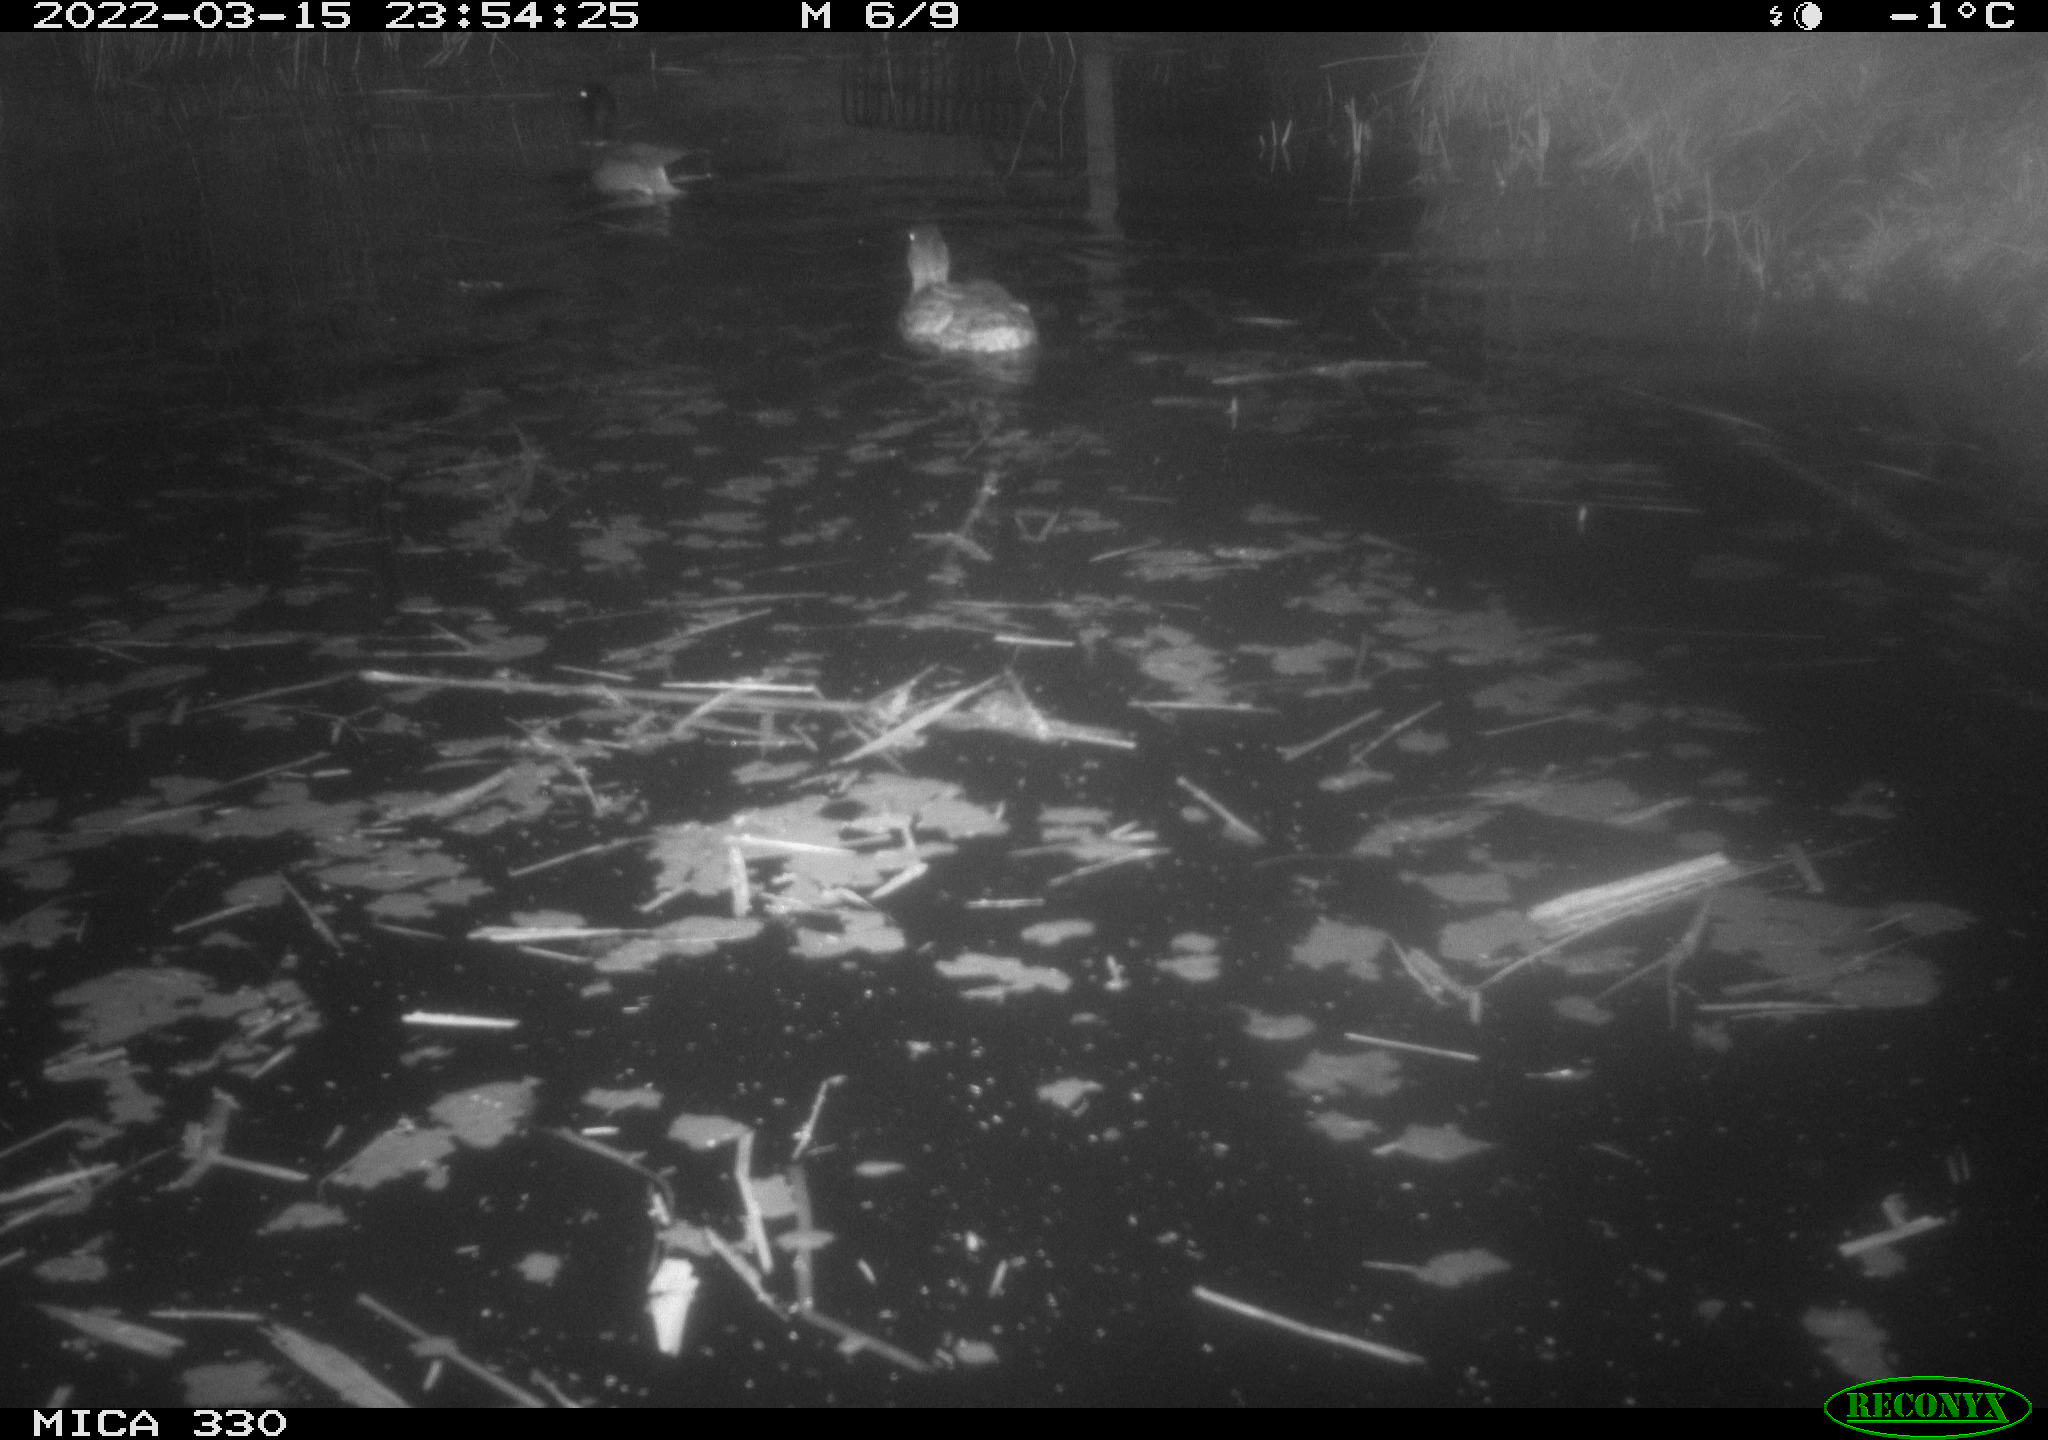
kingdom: Animalia
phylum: Chordata
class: Aves
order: Anseriformes
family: Anatidae
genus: Anas
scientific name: Anas platyrhynchos
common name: Mallard
